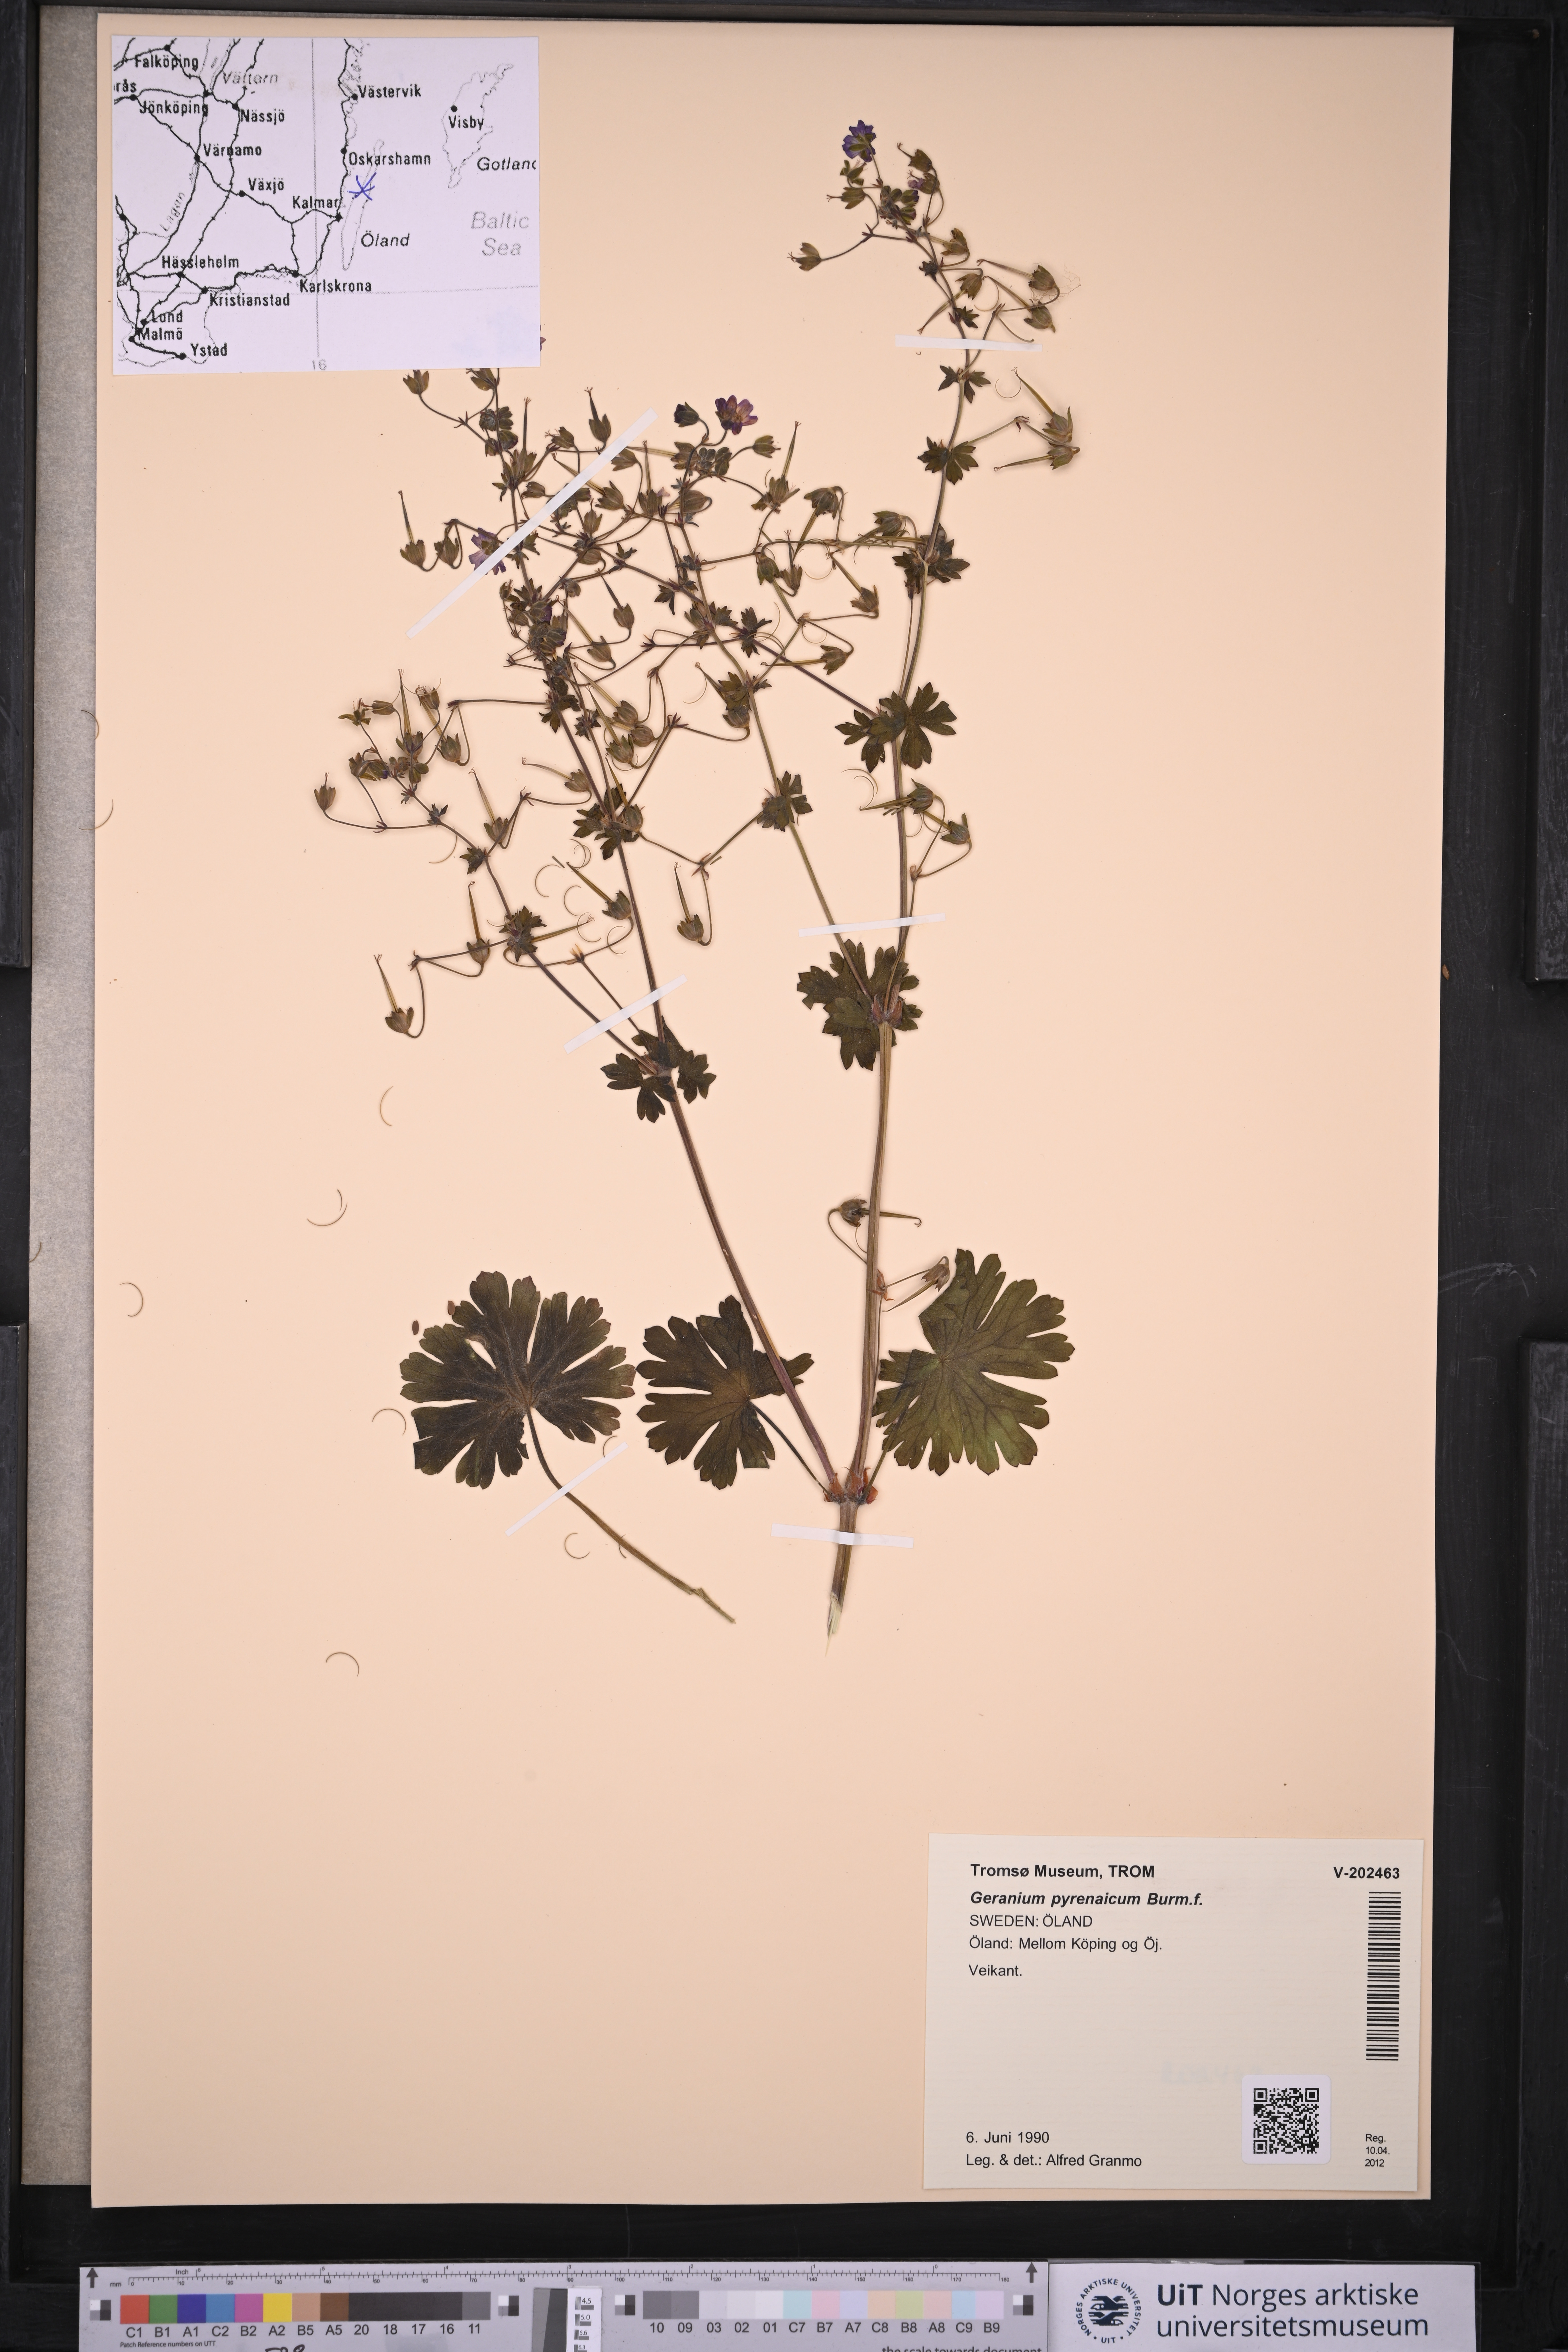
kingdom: Plantae
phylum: Tracheophyta
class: Magnoliopsida
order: Geraniales
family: Geraniaceae
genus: Geranium
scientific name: Geranium pyrenaicum
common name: Hedgerow crane's-bill
